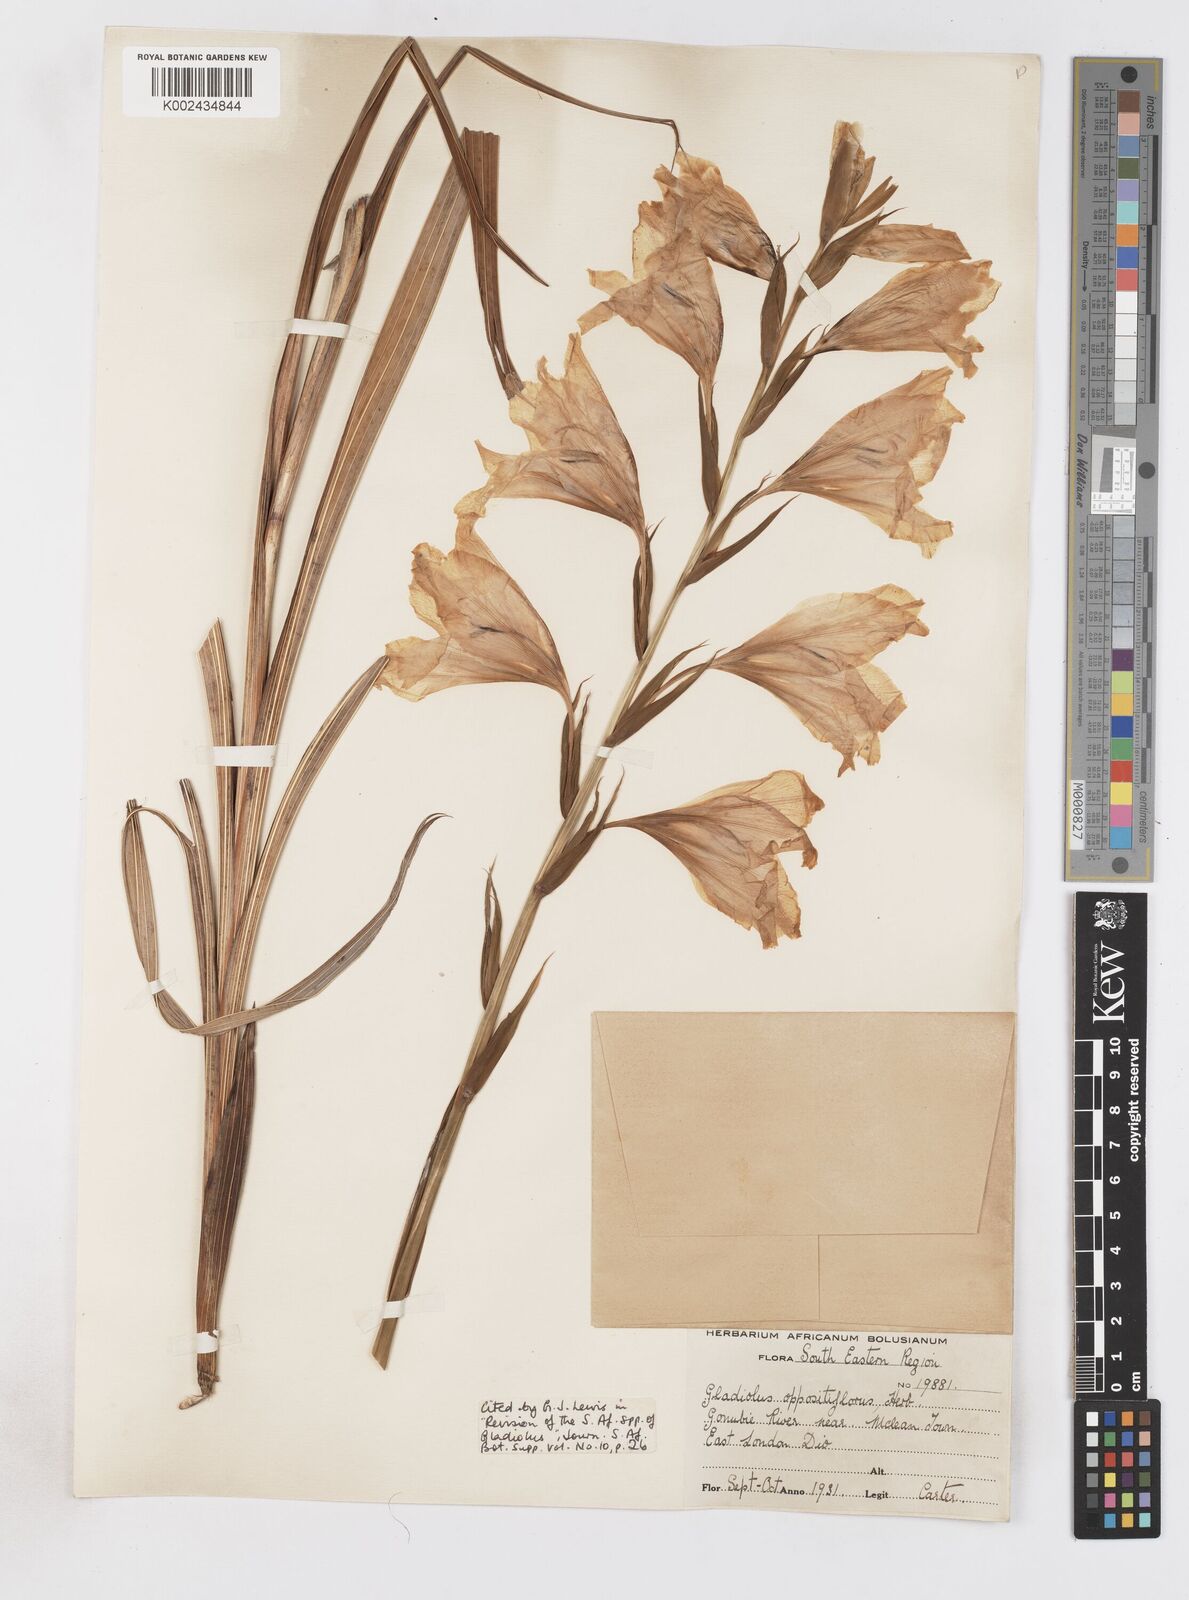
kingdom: Plantae
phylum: Tracheophyta
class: Liliopsida
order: Asparagales
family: Iridaceae
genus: Gladiolus
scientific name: Gladiolus oppositiflorus
